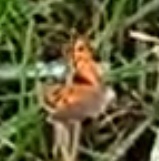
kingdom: Animalia
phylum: Arthropoda
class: Insecta
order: Lepidoptera
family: Lycaenidae
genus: Lycaena
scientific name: Lycaena phlaeas
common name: Lille ildfugl
